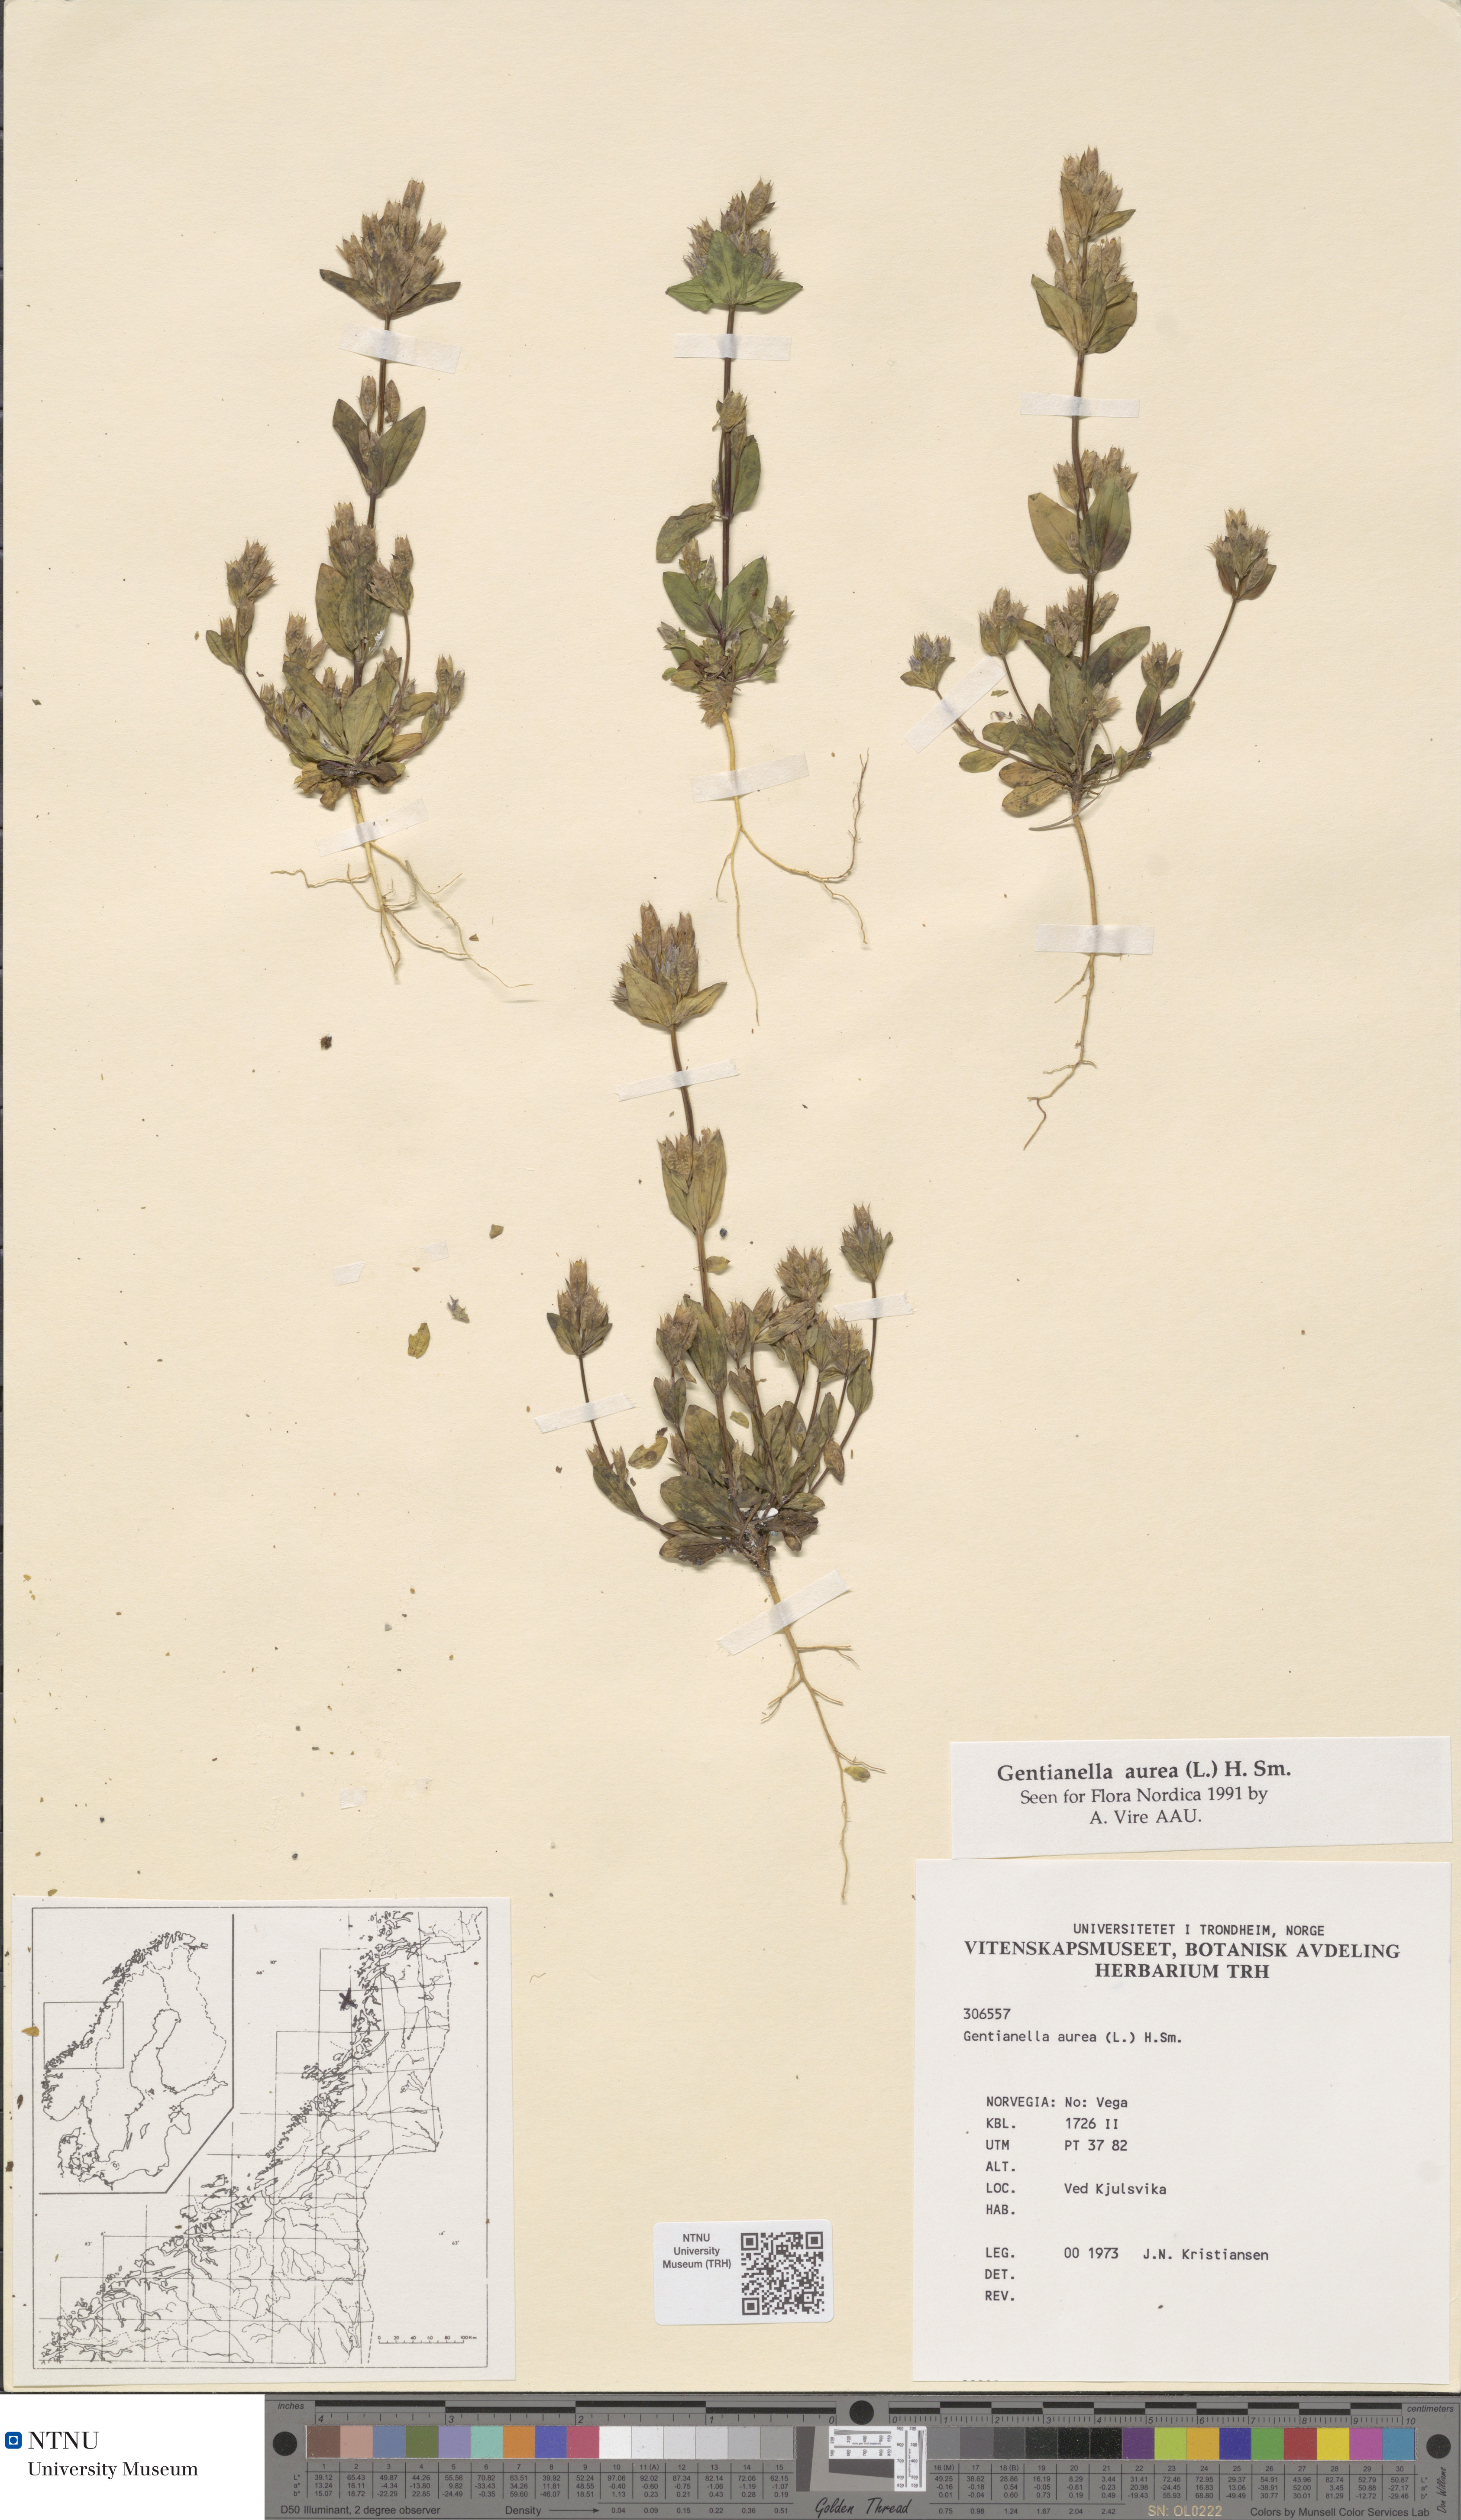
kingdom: Plantae
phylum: Tracheophyta
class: Magnoliopsida
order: Gentianales
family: Gentianaceae
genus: Gentianella
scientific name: Gentianella aurea
